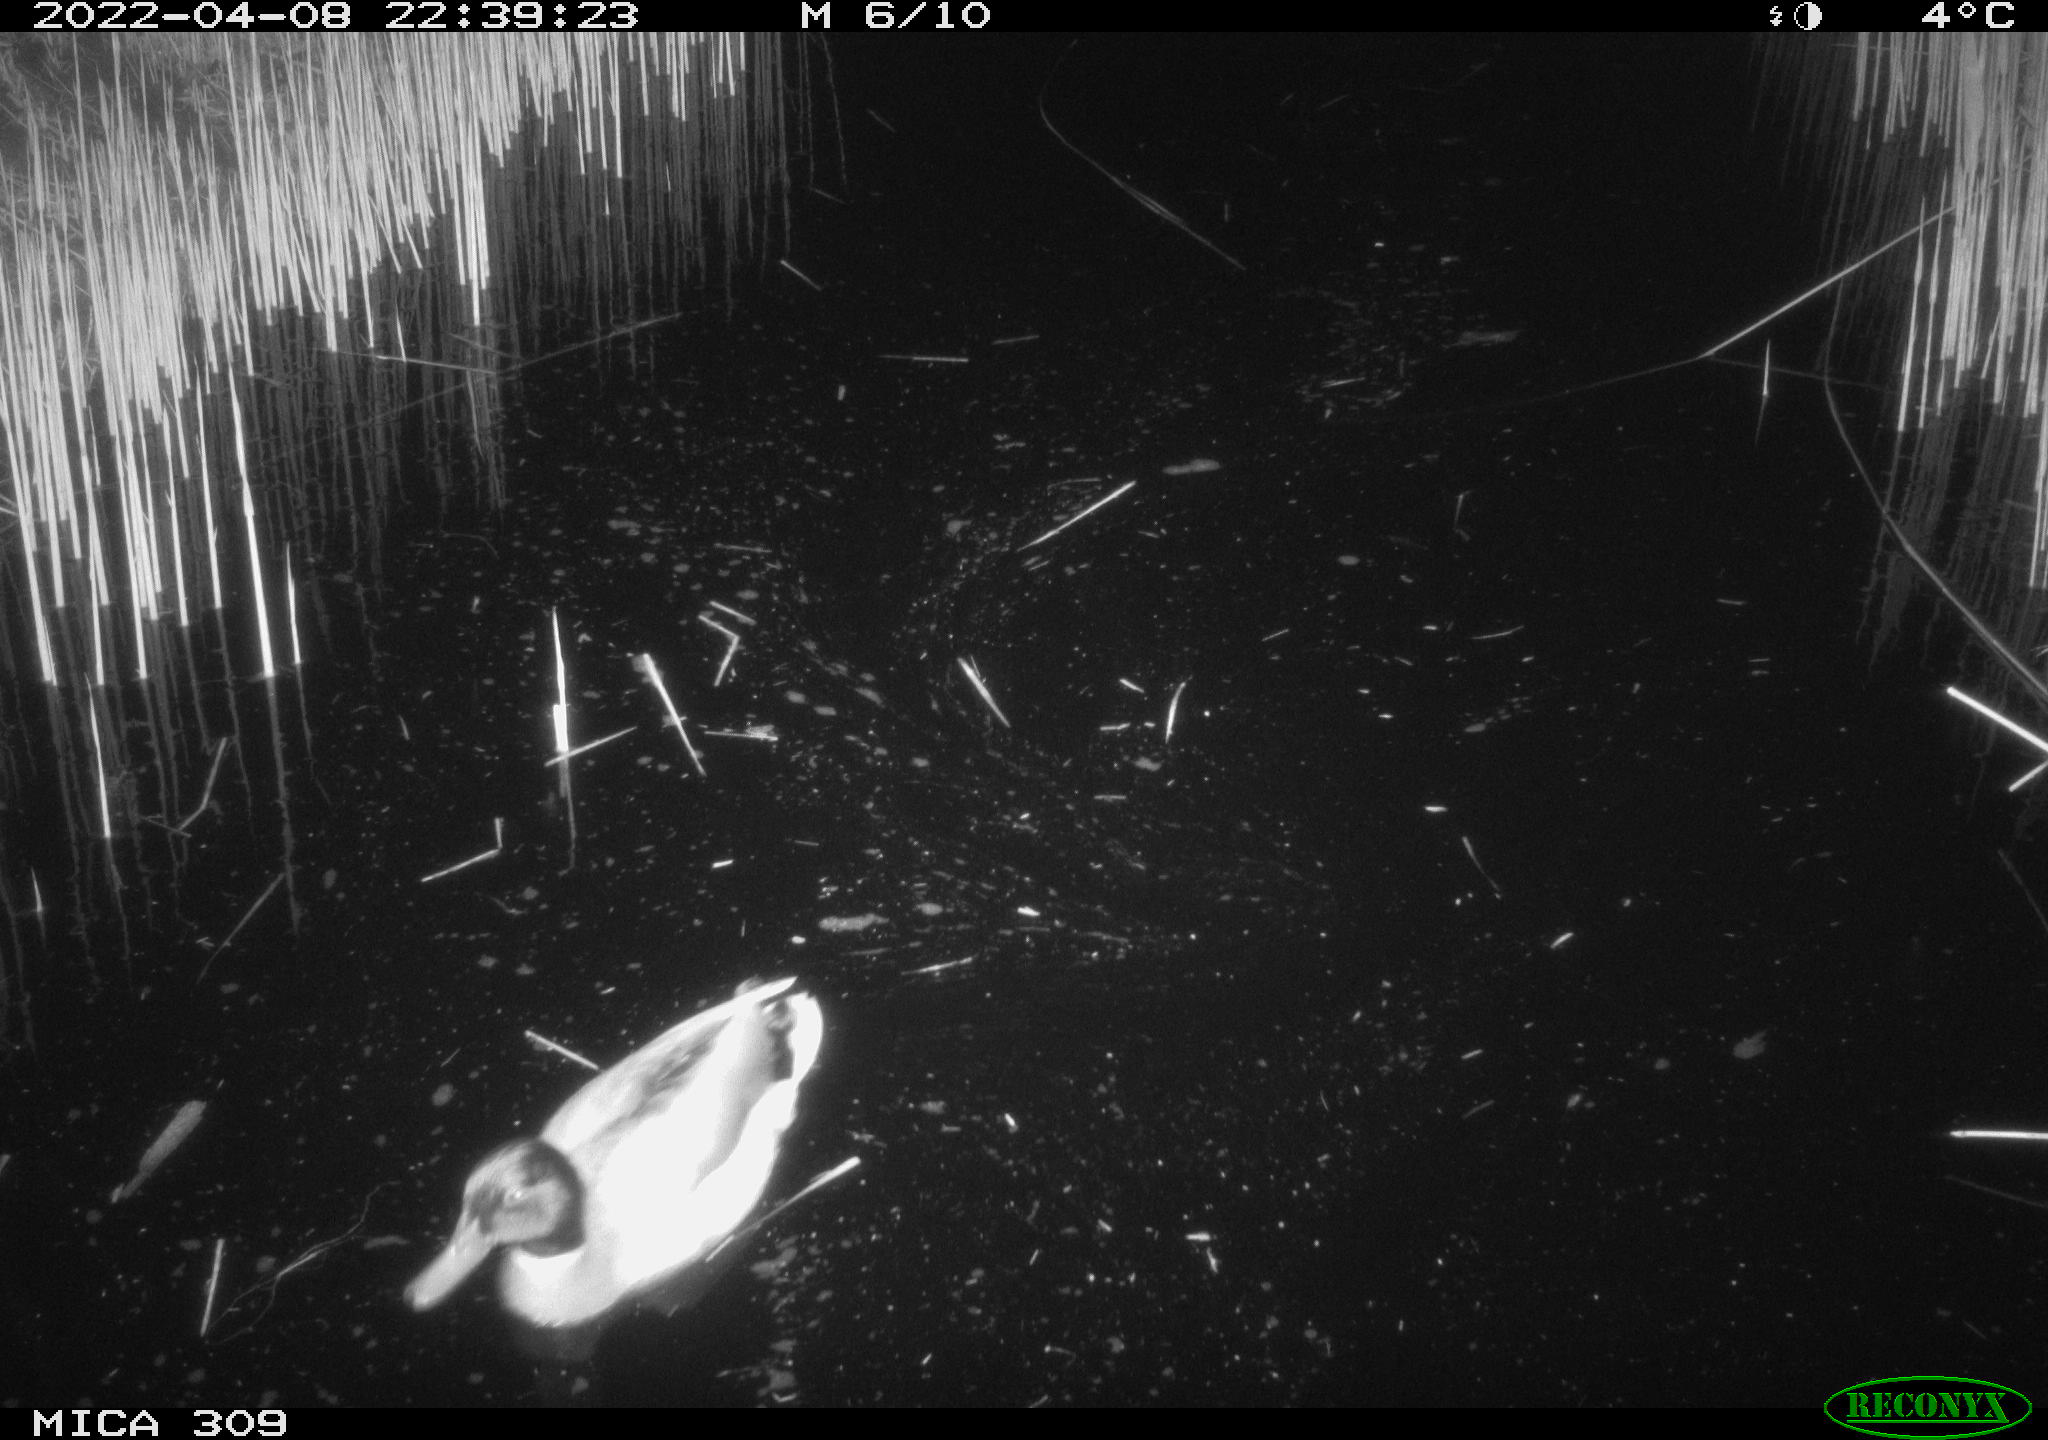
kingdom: Animalia
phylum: Chordata
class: Aves
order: Anseriformes
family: Anatidae
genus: Anas
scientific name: Anas platyrhynchos
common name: Mallard
